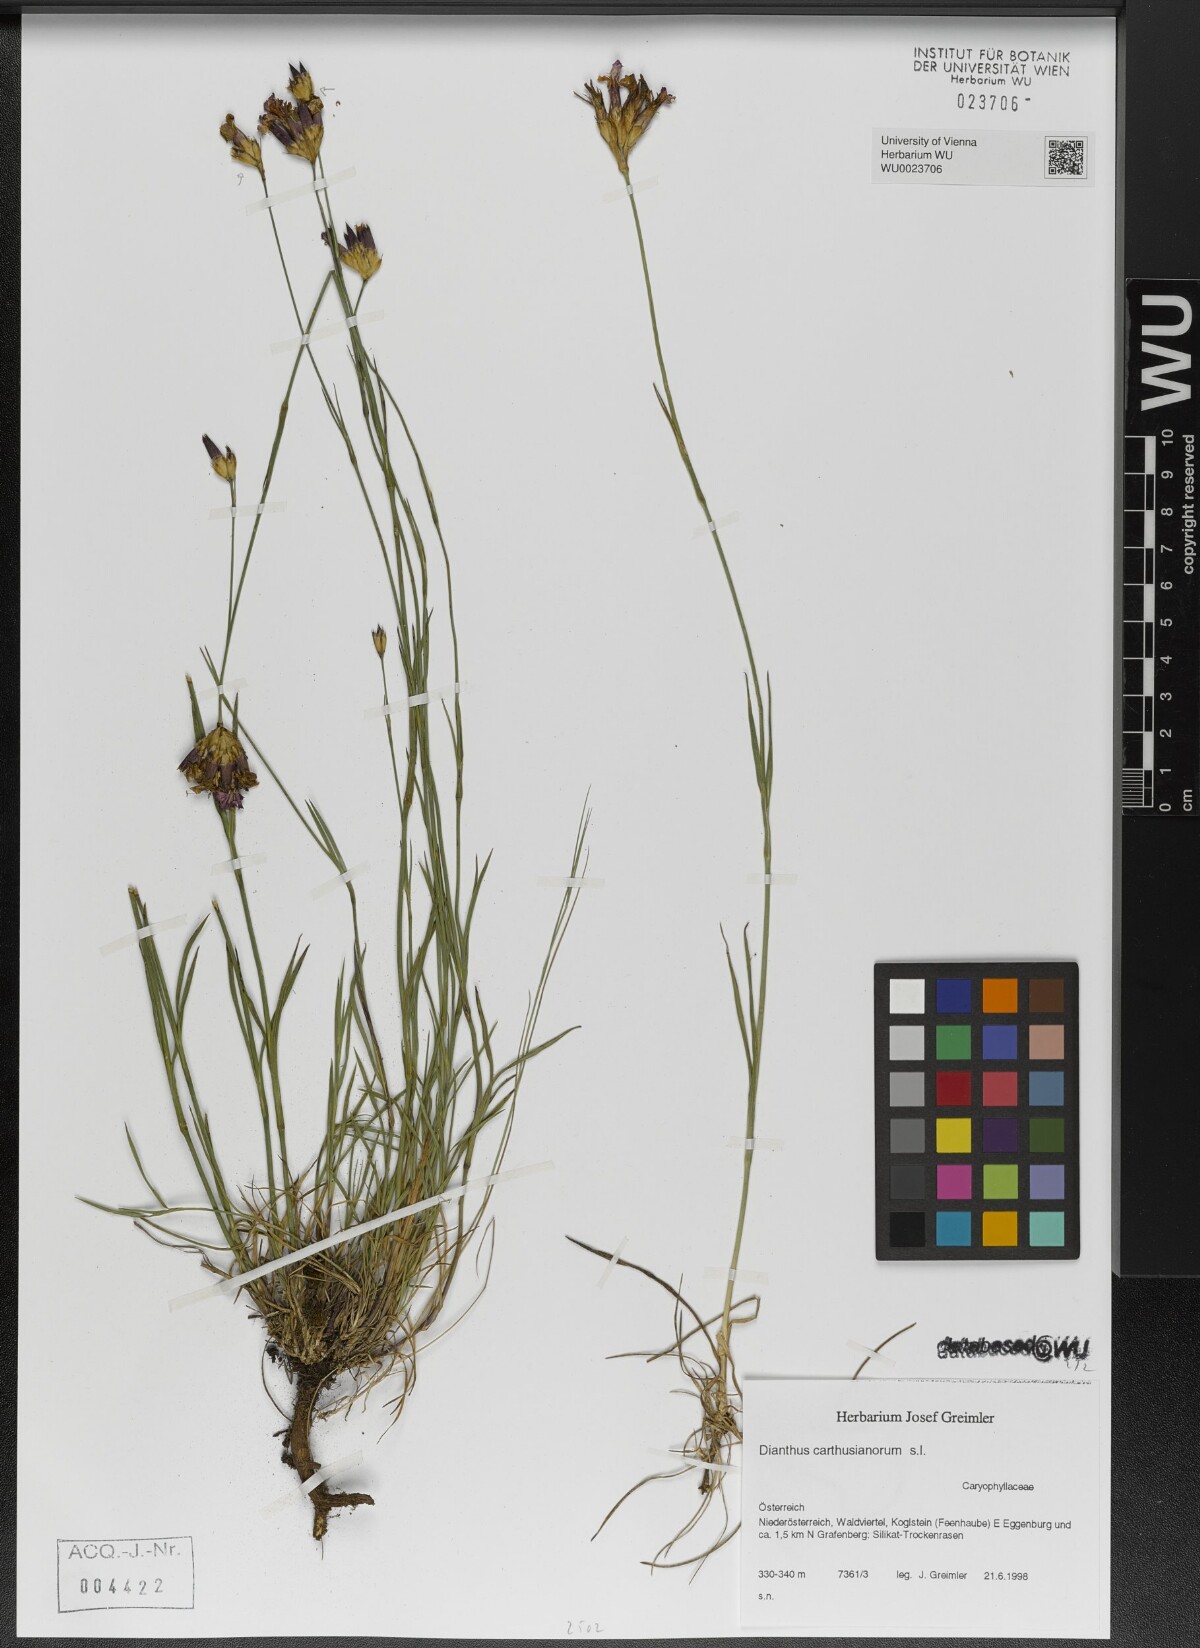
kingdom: Plantae
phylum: Tracheophyta
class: Magnoliopsida
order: Caryophyllales
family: Caryophyllaceae
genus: Dianthus
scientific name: Dianthus carthusianorum
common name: Carthusian pink
